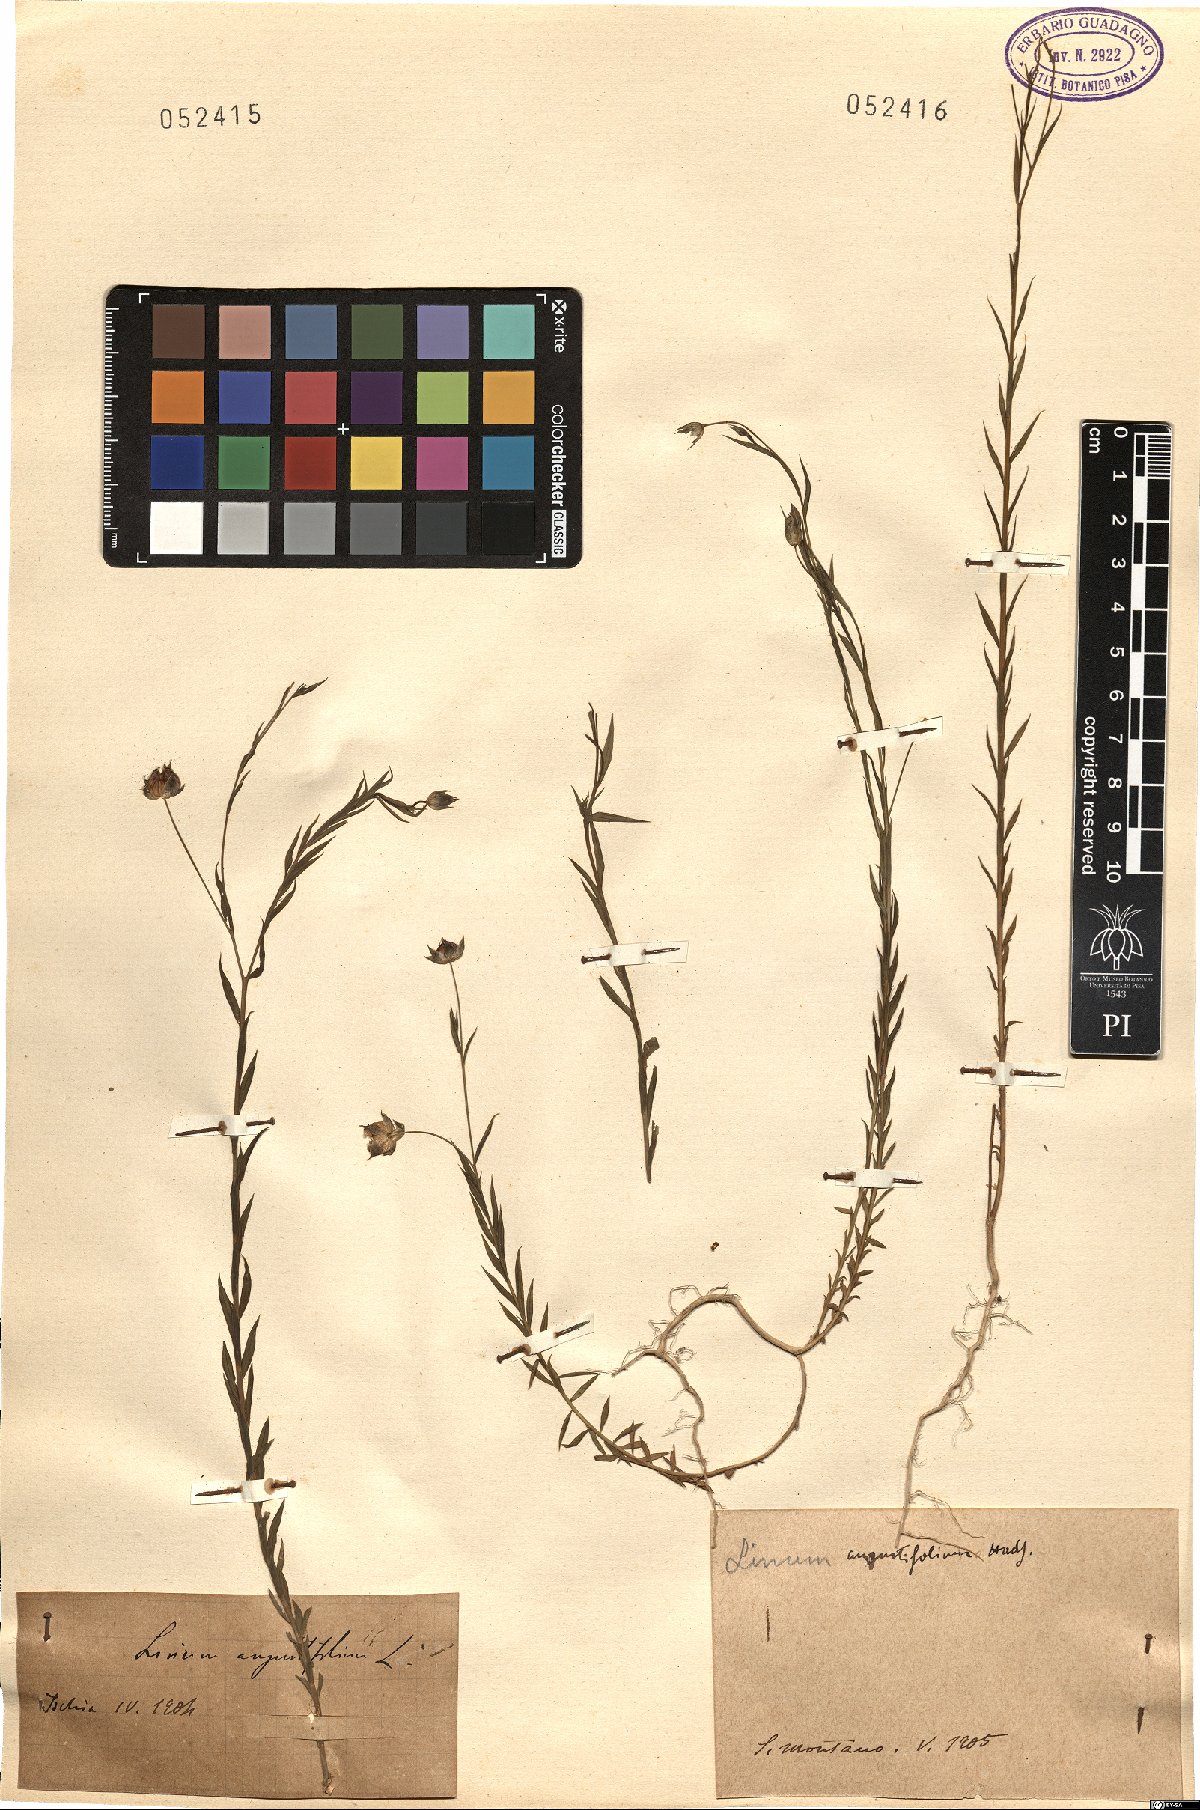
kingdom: Plantae
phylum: Tracheophyta
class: Magnoliopsida
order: Malpighiales
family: Linaceae
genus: Linum
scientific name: Linum bienne
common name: Pale flax
